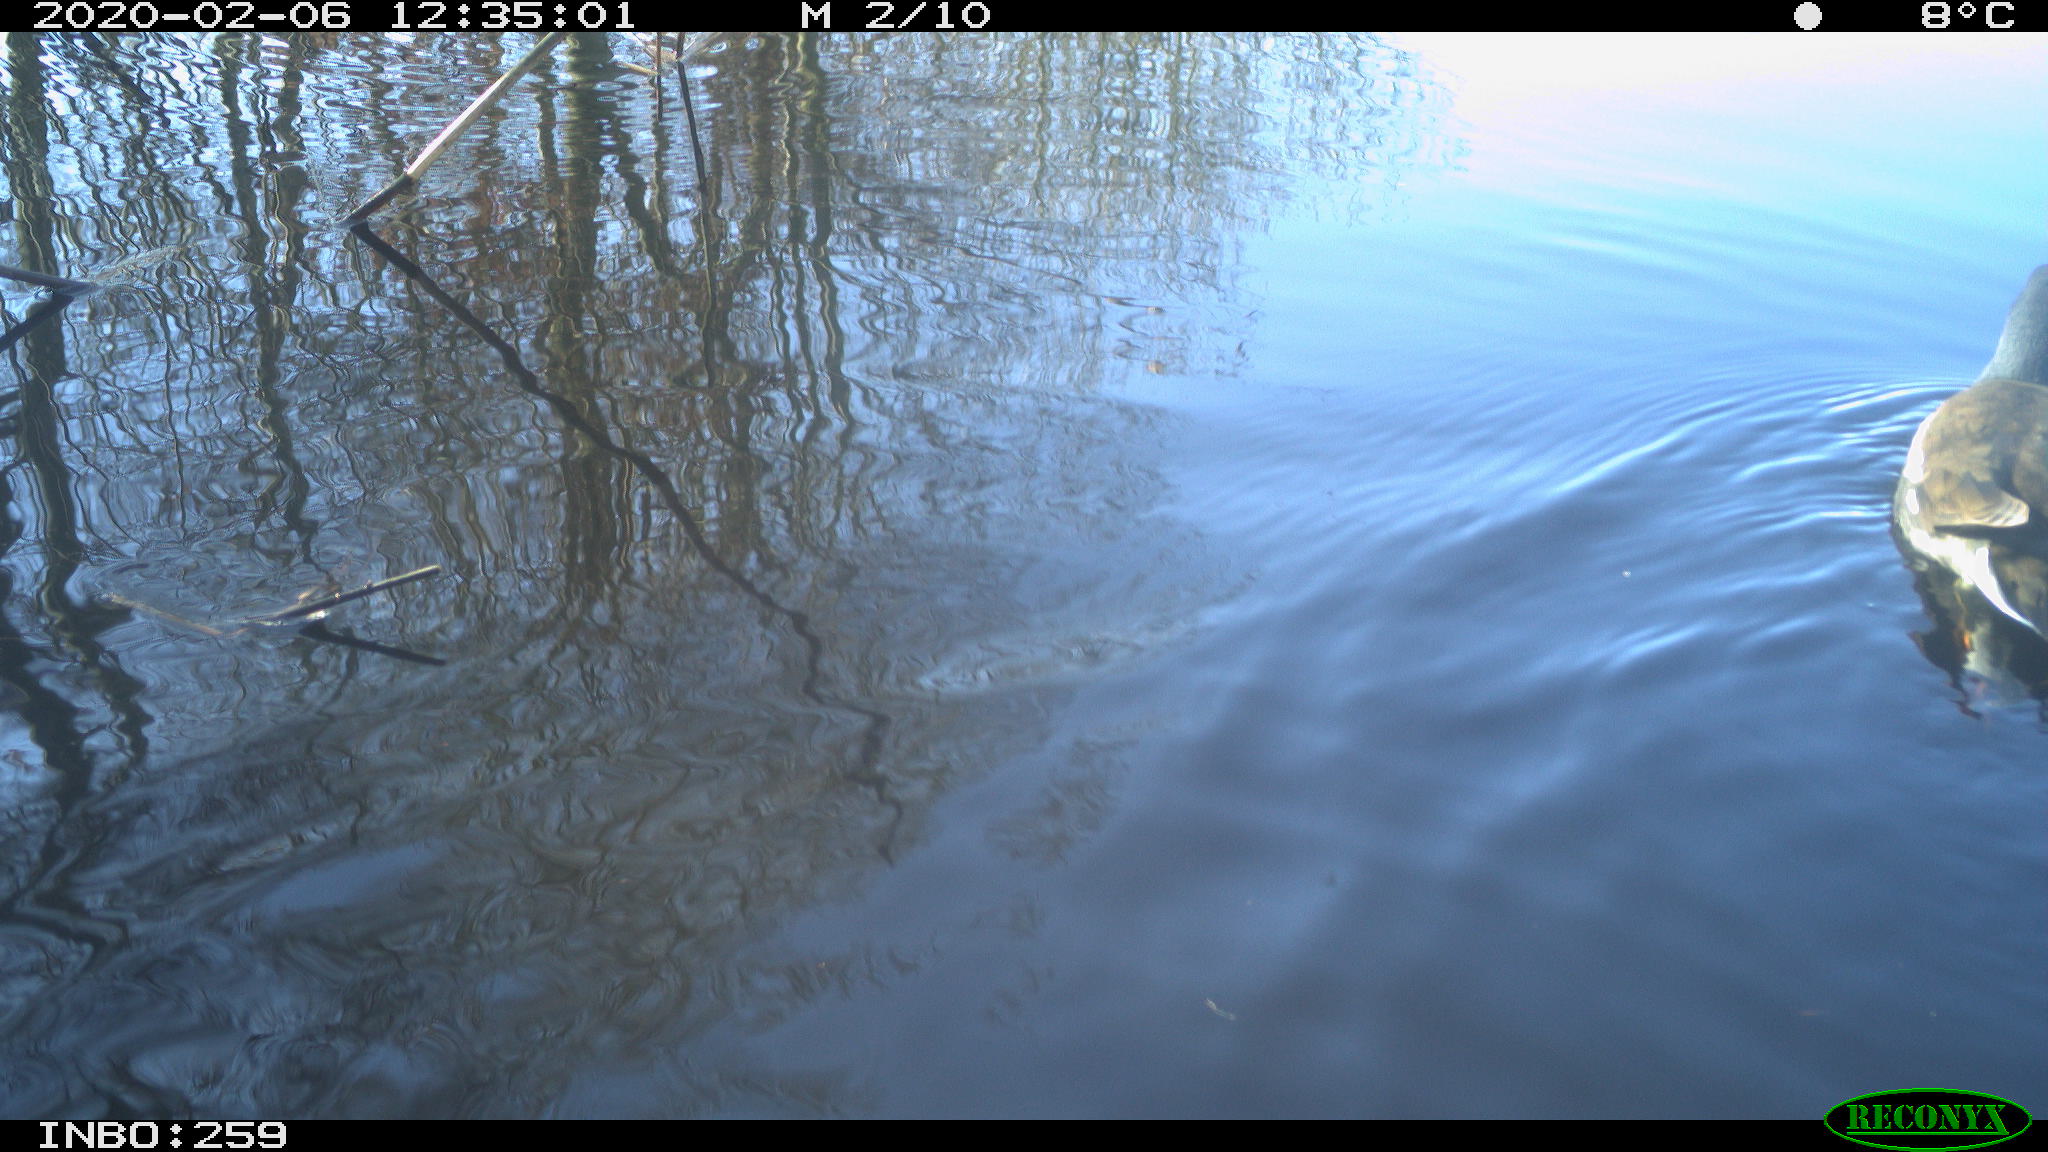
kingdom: Animalia
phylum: Chordata
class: Aves
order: Gruiformes
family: Rallidae
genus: Gallinula
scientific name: Gallinula chloropus
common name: Common moorhen
